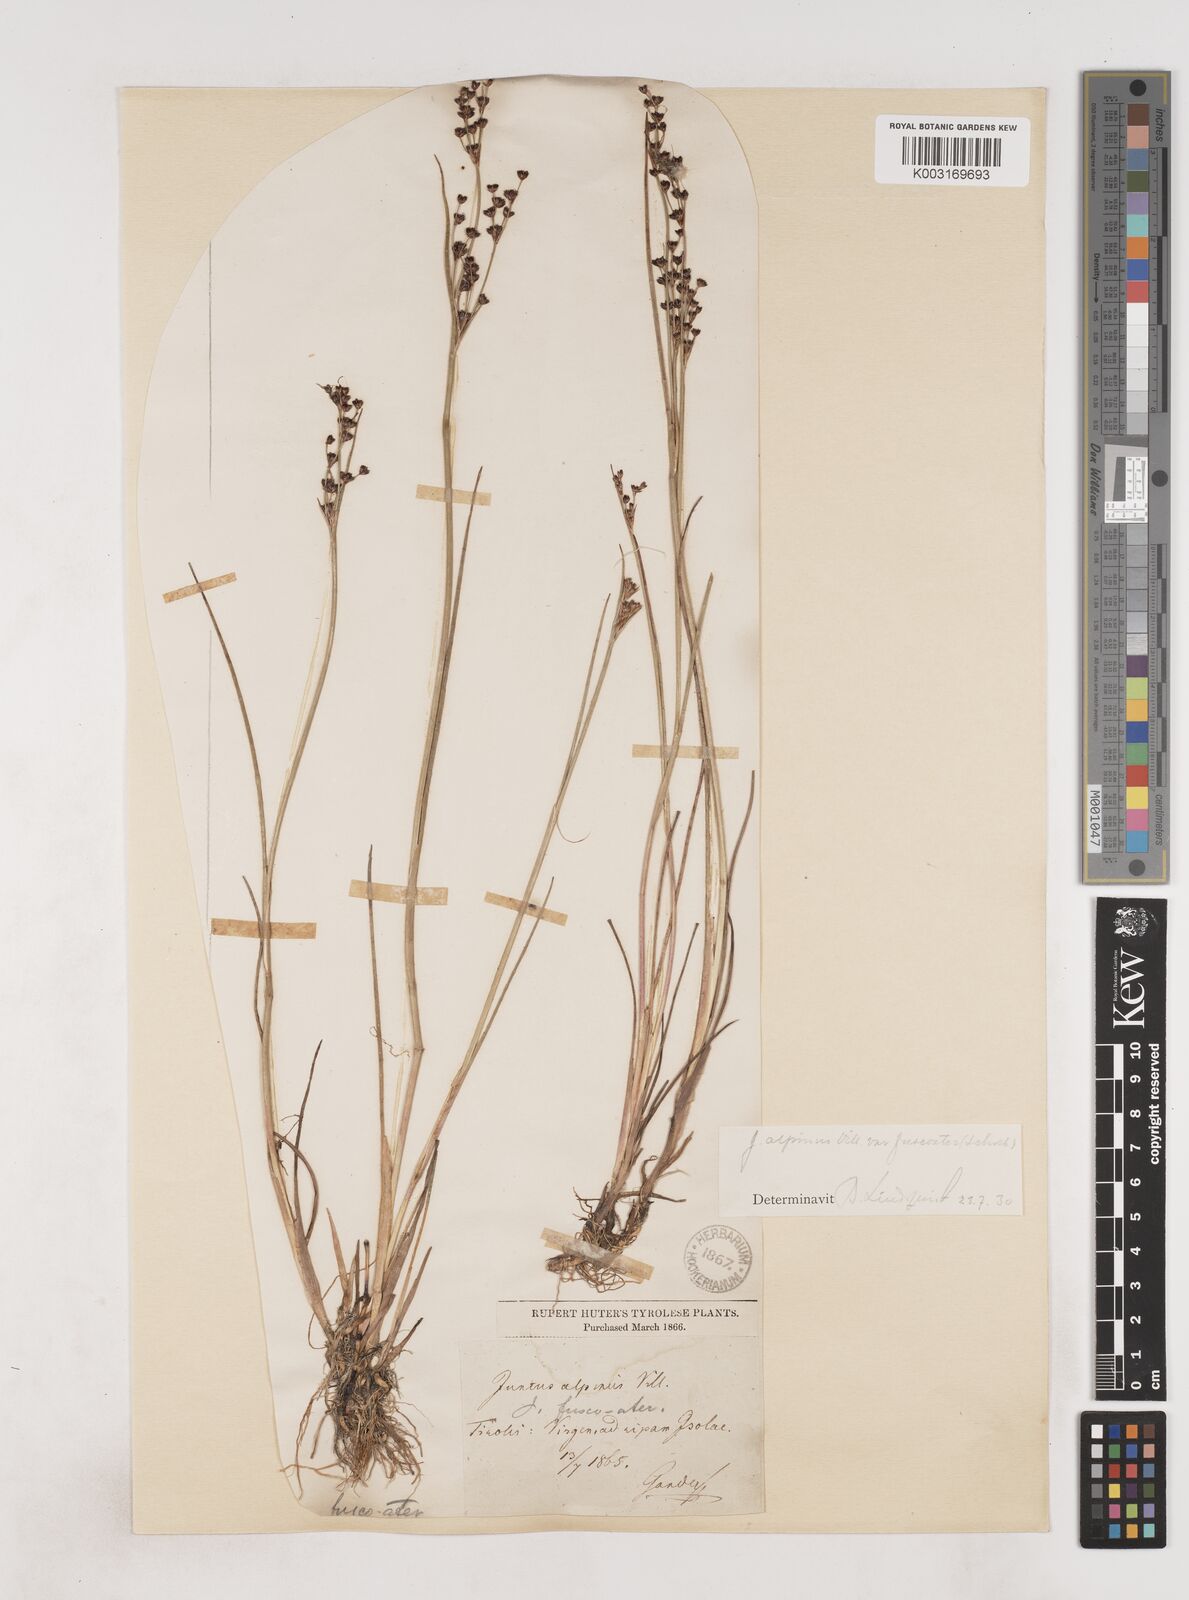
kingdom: Plantae
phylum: Tracheophyta
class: Liliopsida
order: Poales
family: Juncaceae
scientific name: Juncaceae
